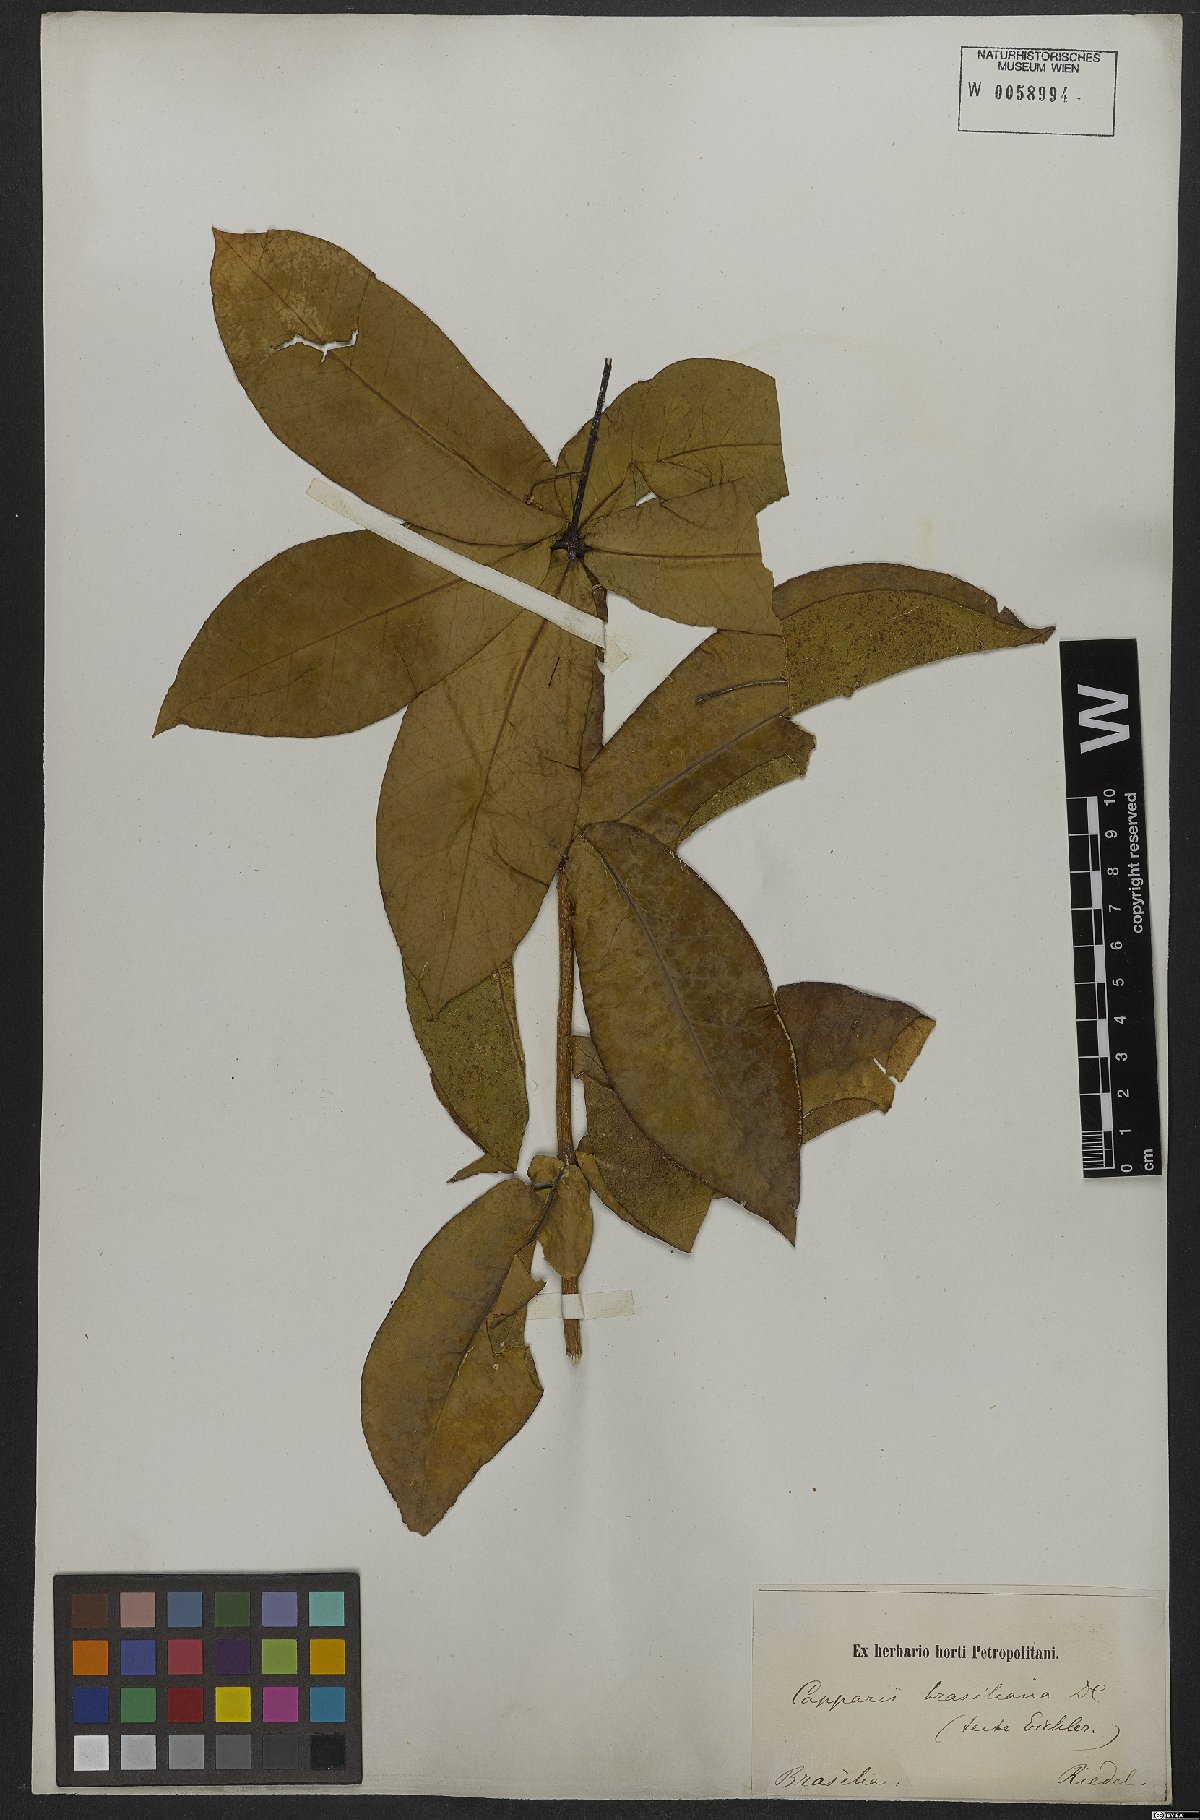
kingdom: Plantae
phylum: Tracheophyta
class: Magnoliopsida
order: Brassicales
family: Capparaceae
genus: Monilicarpa
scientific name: Monilicarpa brasiliana
